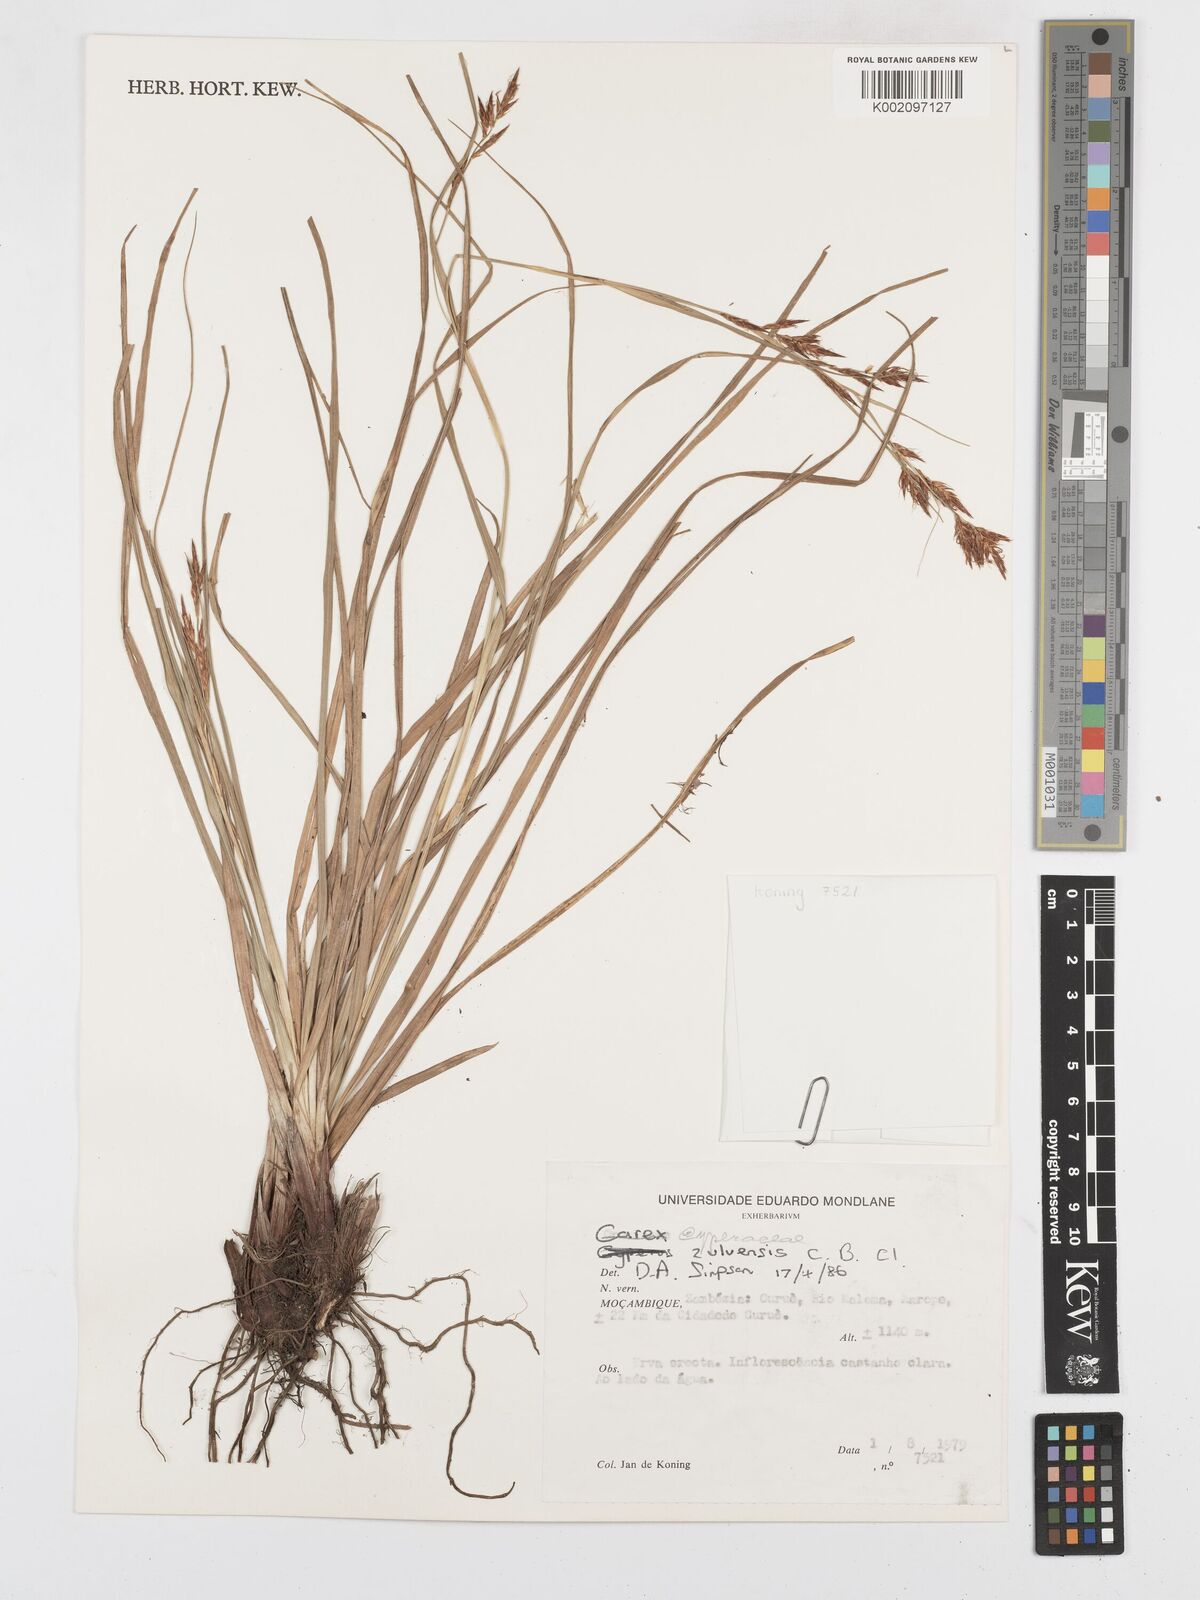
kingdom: Plantae
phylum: Tracheophyta
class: Liliopsida
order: Poales
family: Cyperaceae
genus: Carex
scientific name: Carex steudneri
